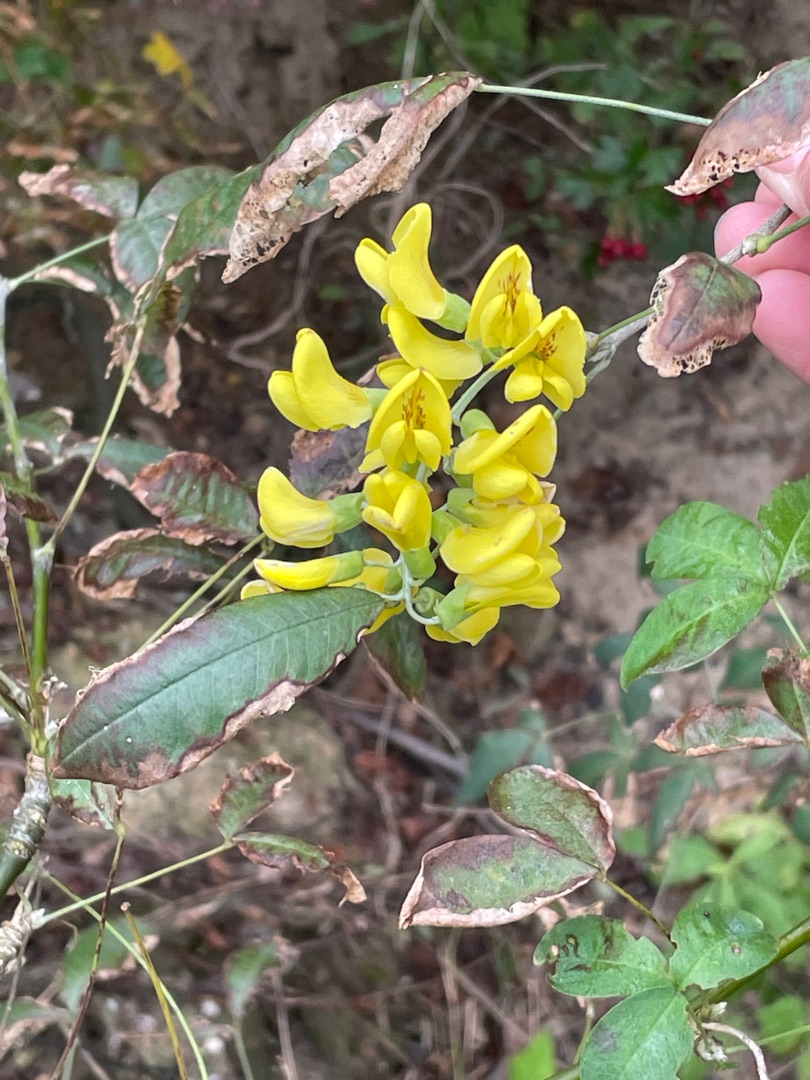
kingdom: Plantae
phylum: Tracheophyta
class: Magnoliopsida
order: Fabales
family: Fabaceae
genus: Laburnum
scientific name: Laburnum anagyroides
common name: Guldregn
